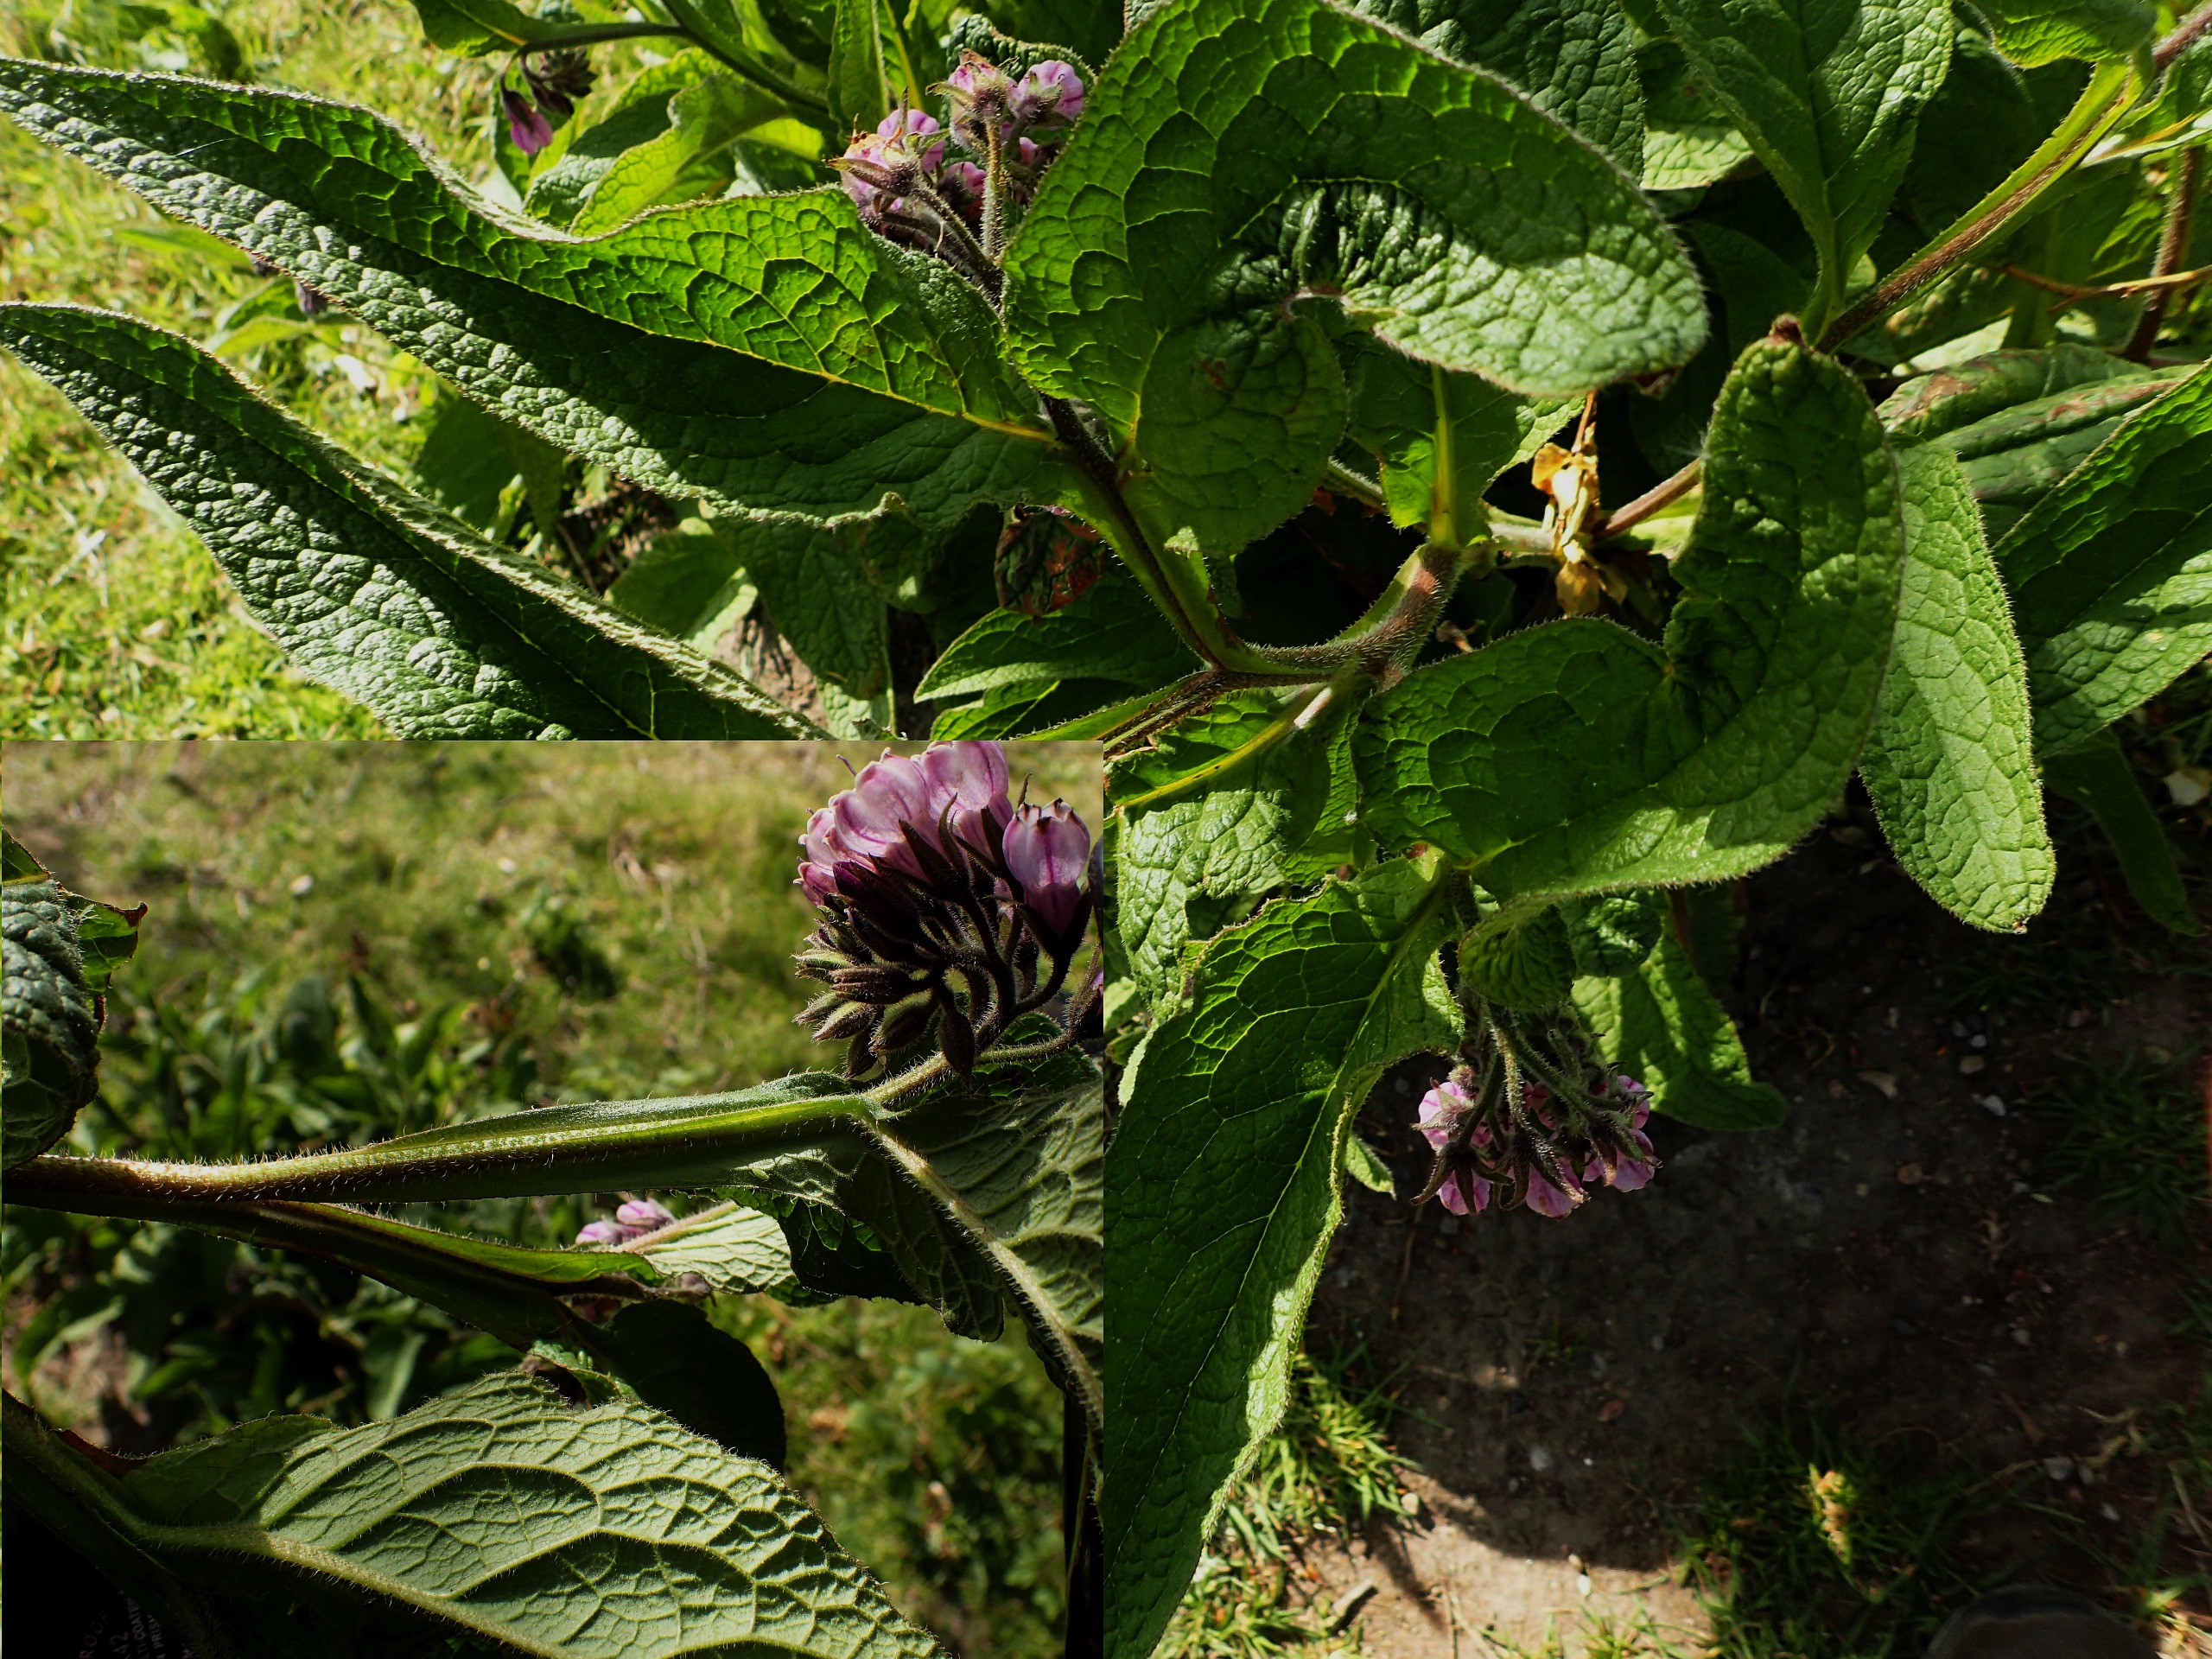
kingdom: Plantae
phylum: Tracheophyta
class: Magnoliopsida
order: Boraginales
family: Boraginaceae
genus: Symphytum
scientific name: Symphytum uplandicum
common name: Foder-kulsukker
